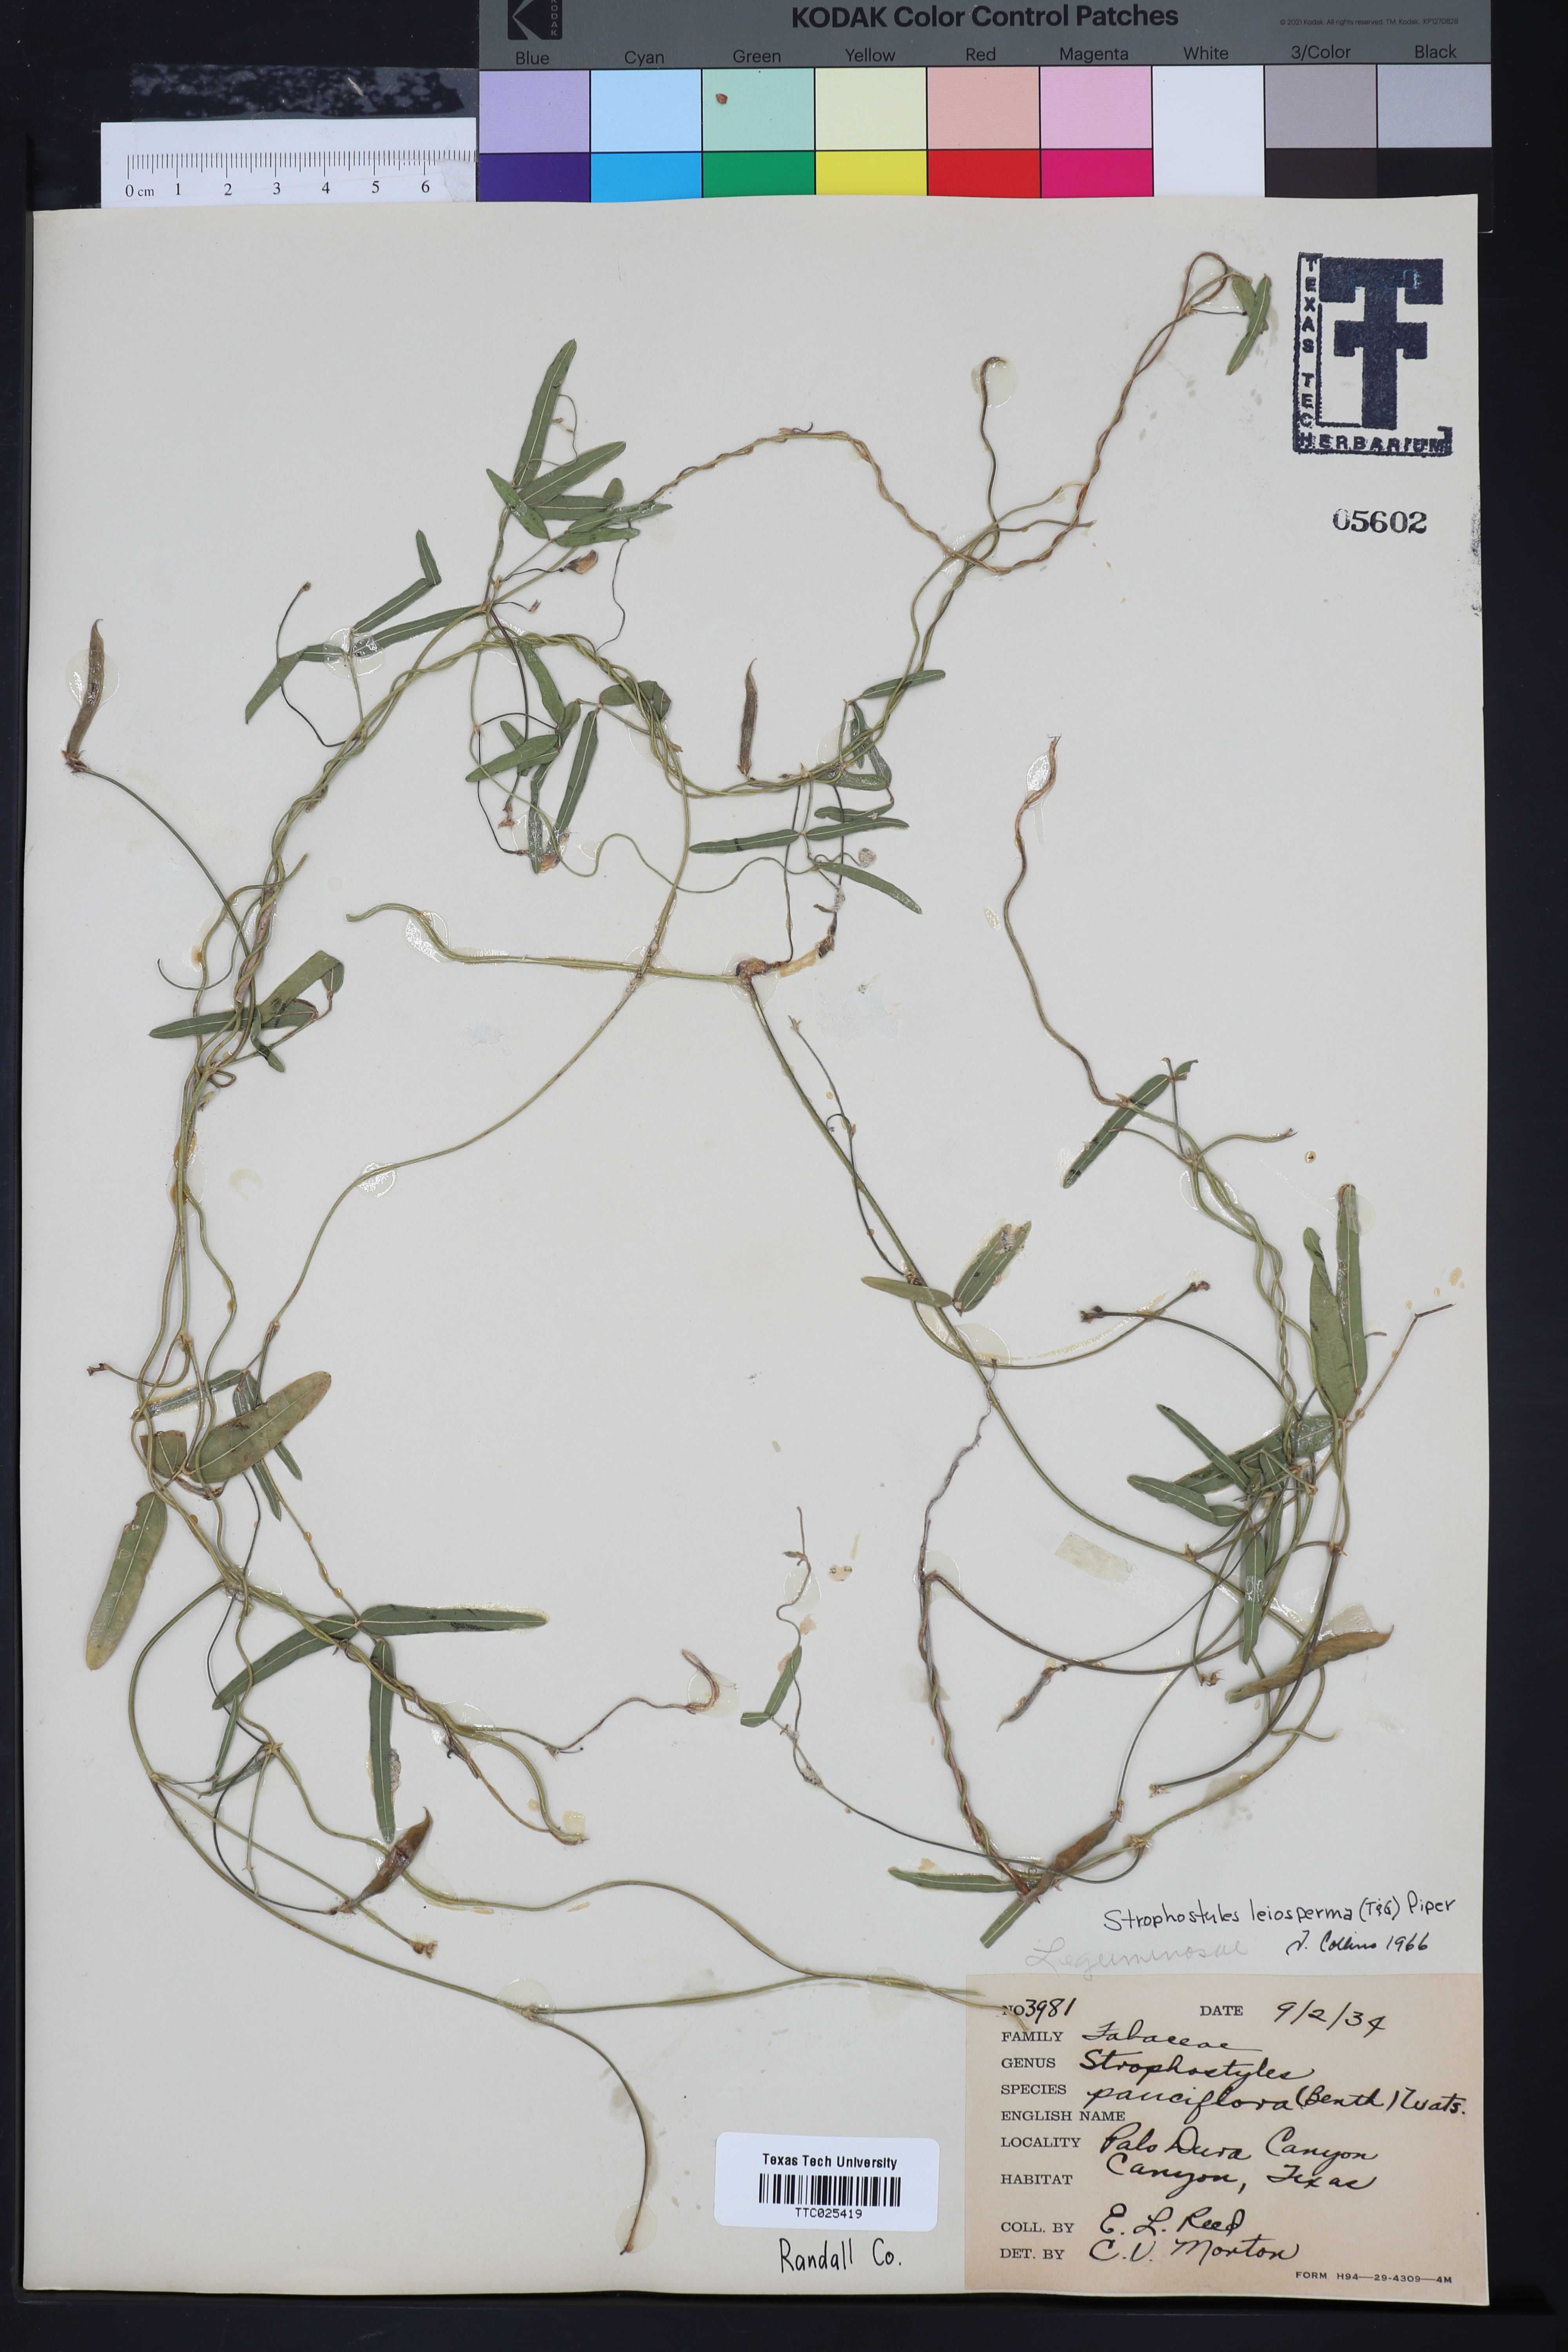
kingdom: Plantae
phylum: Tracheophyta
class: Magnoliopsida
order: Fabales
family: Fabaceae
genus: Strophostyles
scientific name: Strophostyles leiosperma
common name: Smooth-seed wild bean
